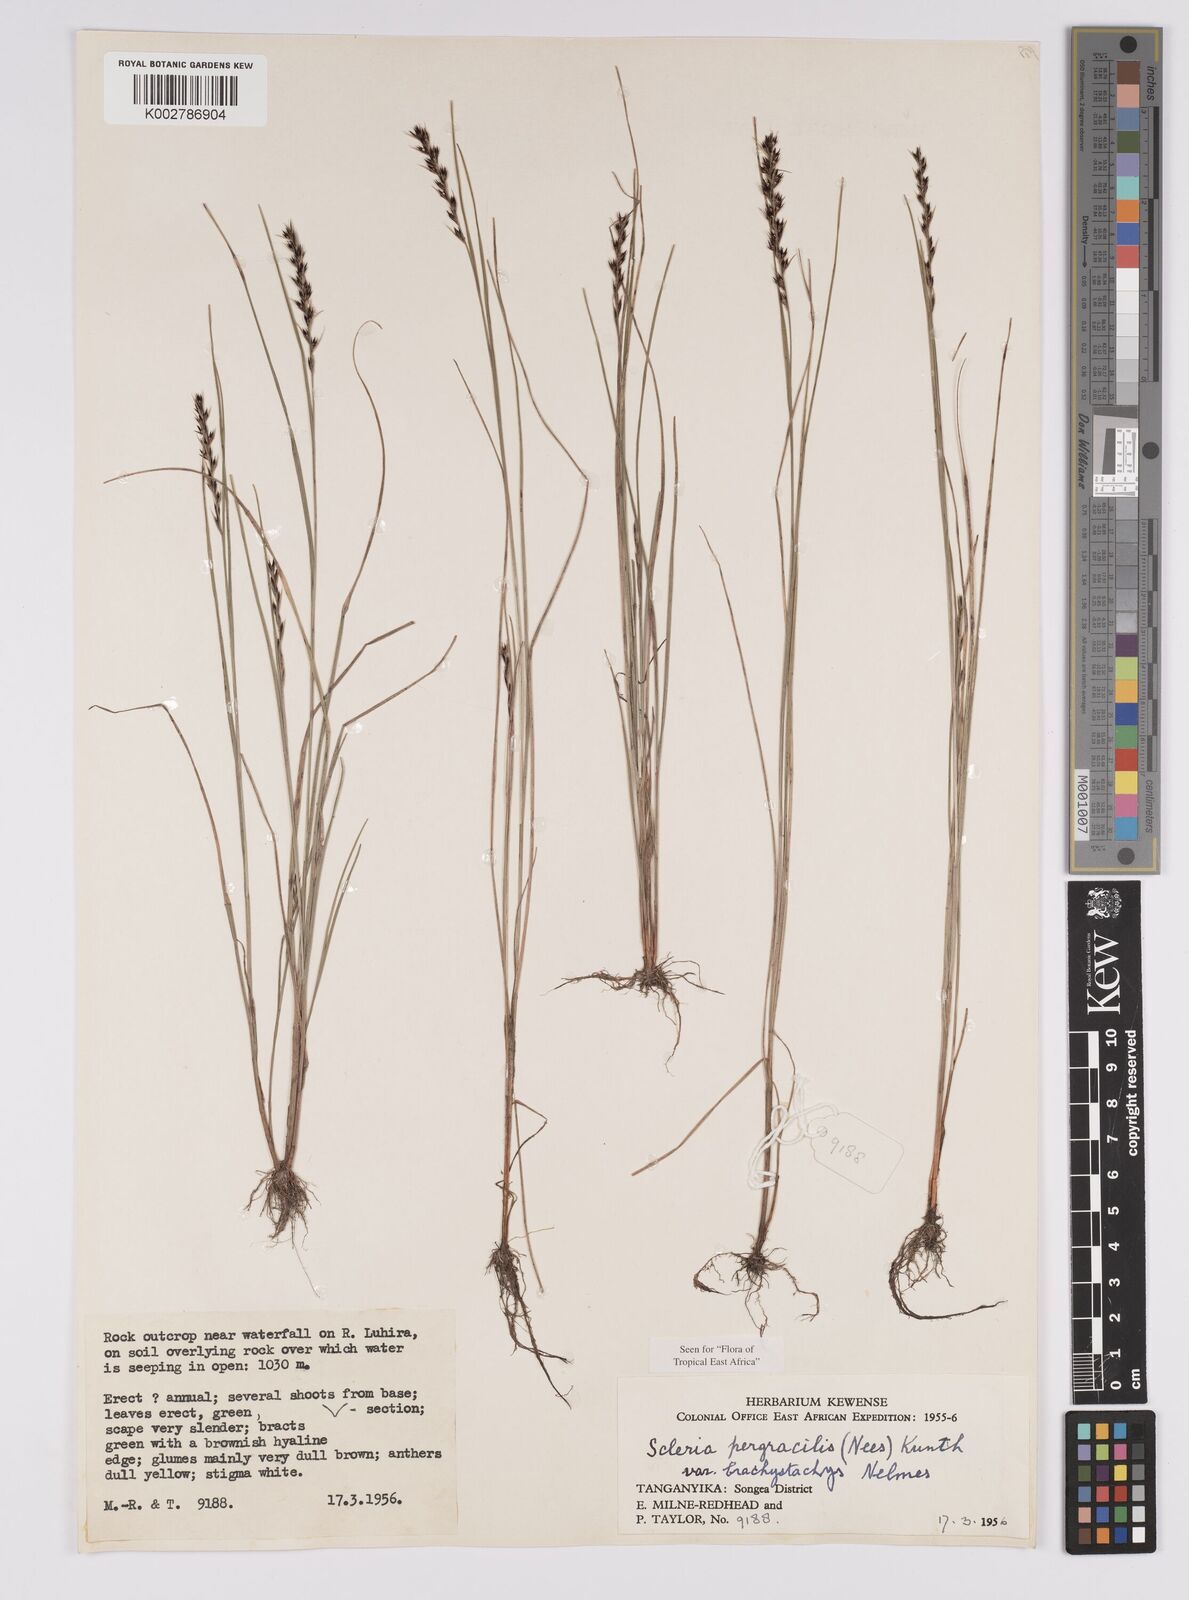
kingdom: Plantae
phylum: Tracheophyta
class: Liliopsida
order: Poales
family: Cyperaceae
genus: Scleria
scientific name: Scleria pergracilis
